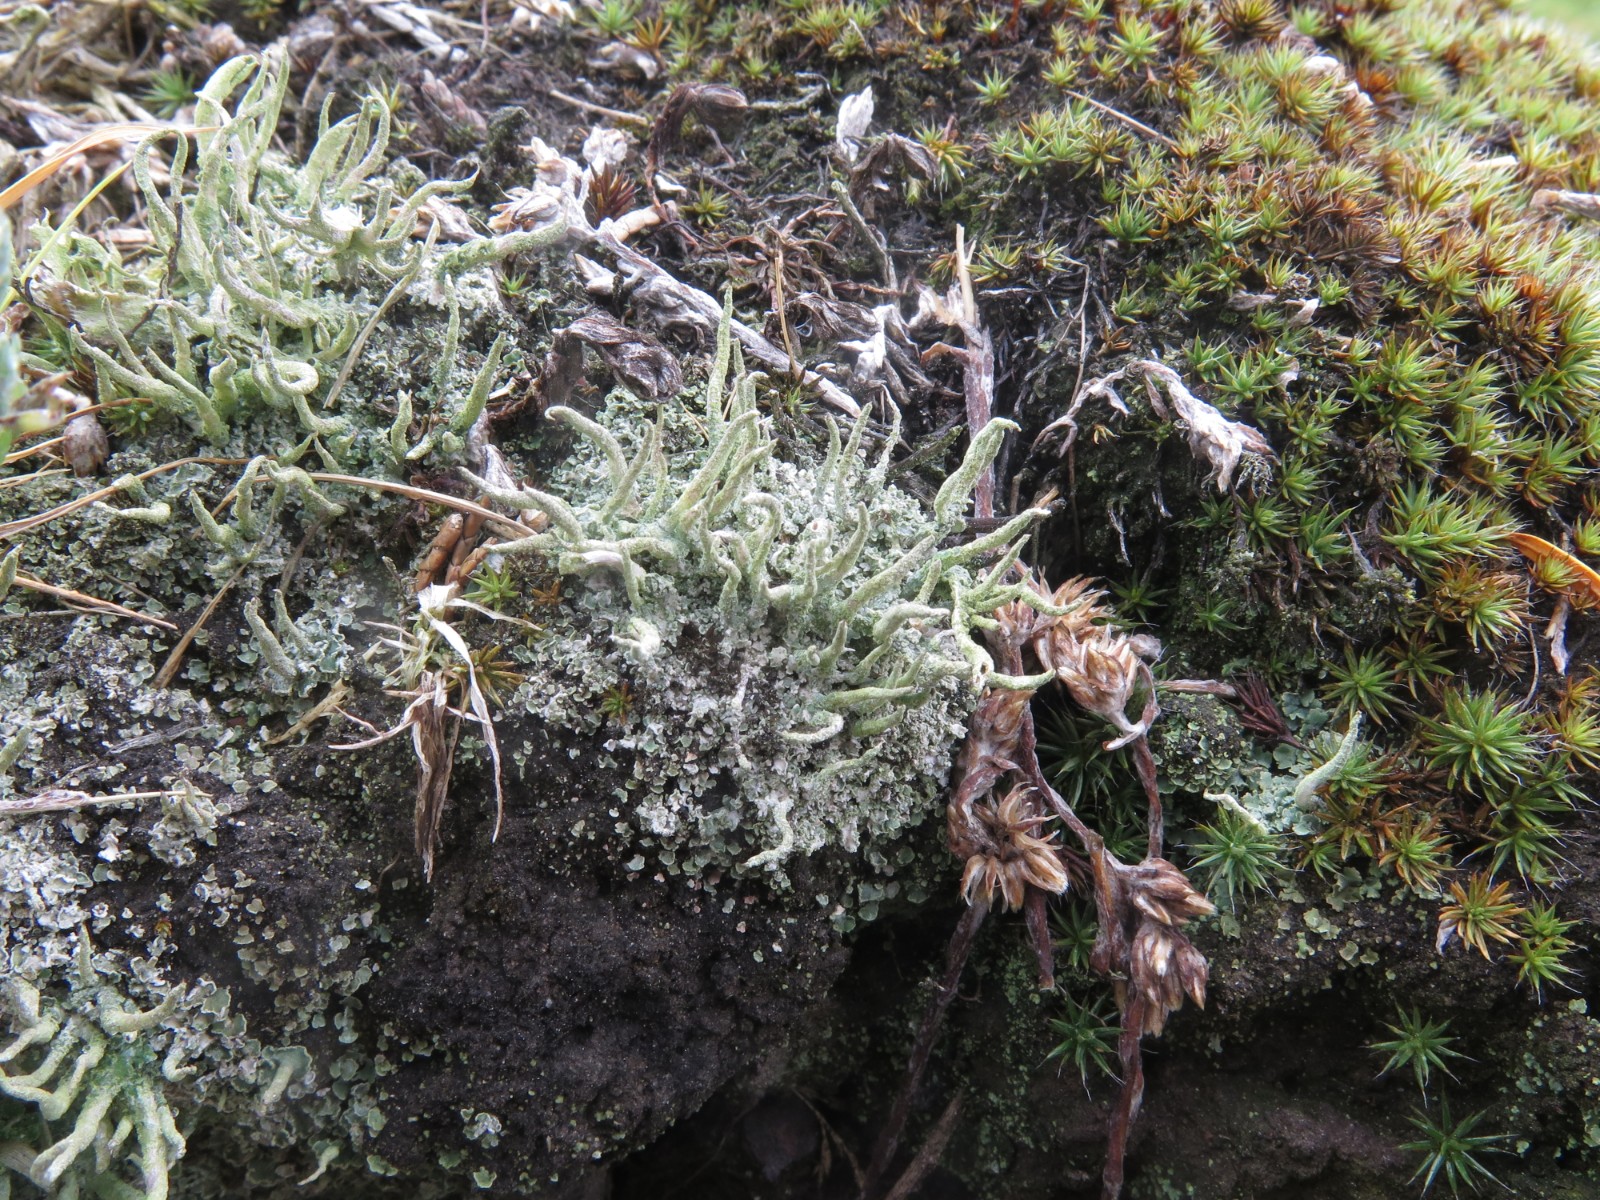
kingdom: Fungi
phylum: Ascomycota
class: Lecanoromycetes
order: Lecanorales
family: Cladoniaceae
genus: Cladonia
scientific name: Cladonia glauca
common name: grågrøn bægerlav
